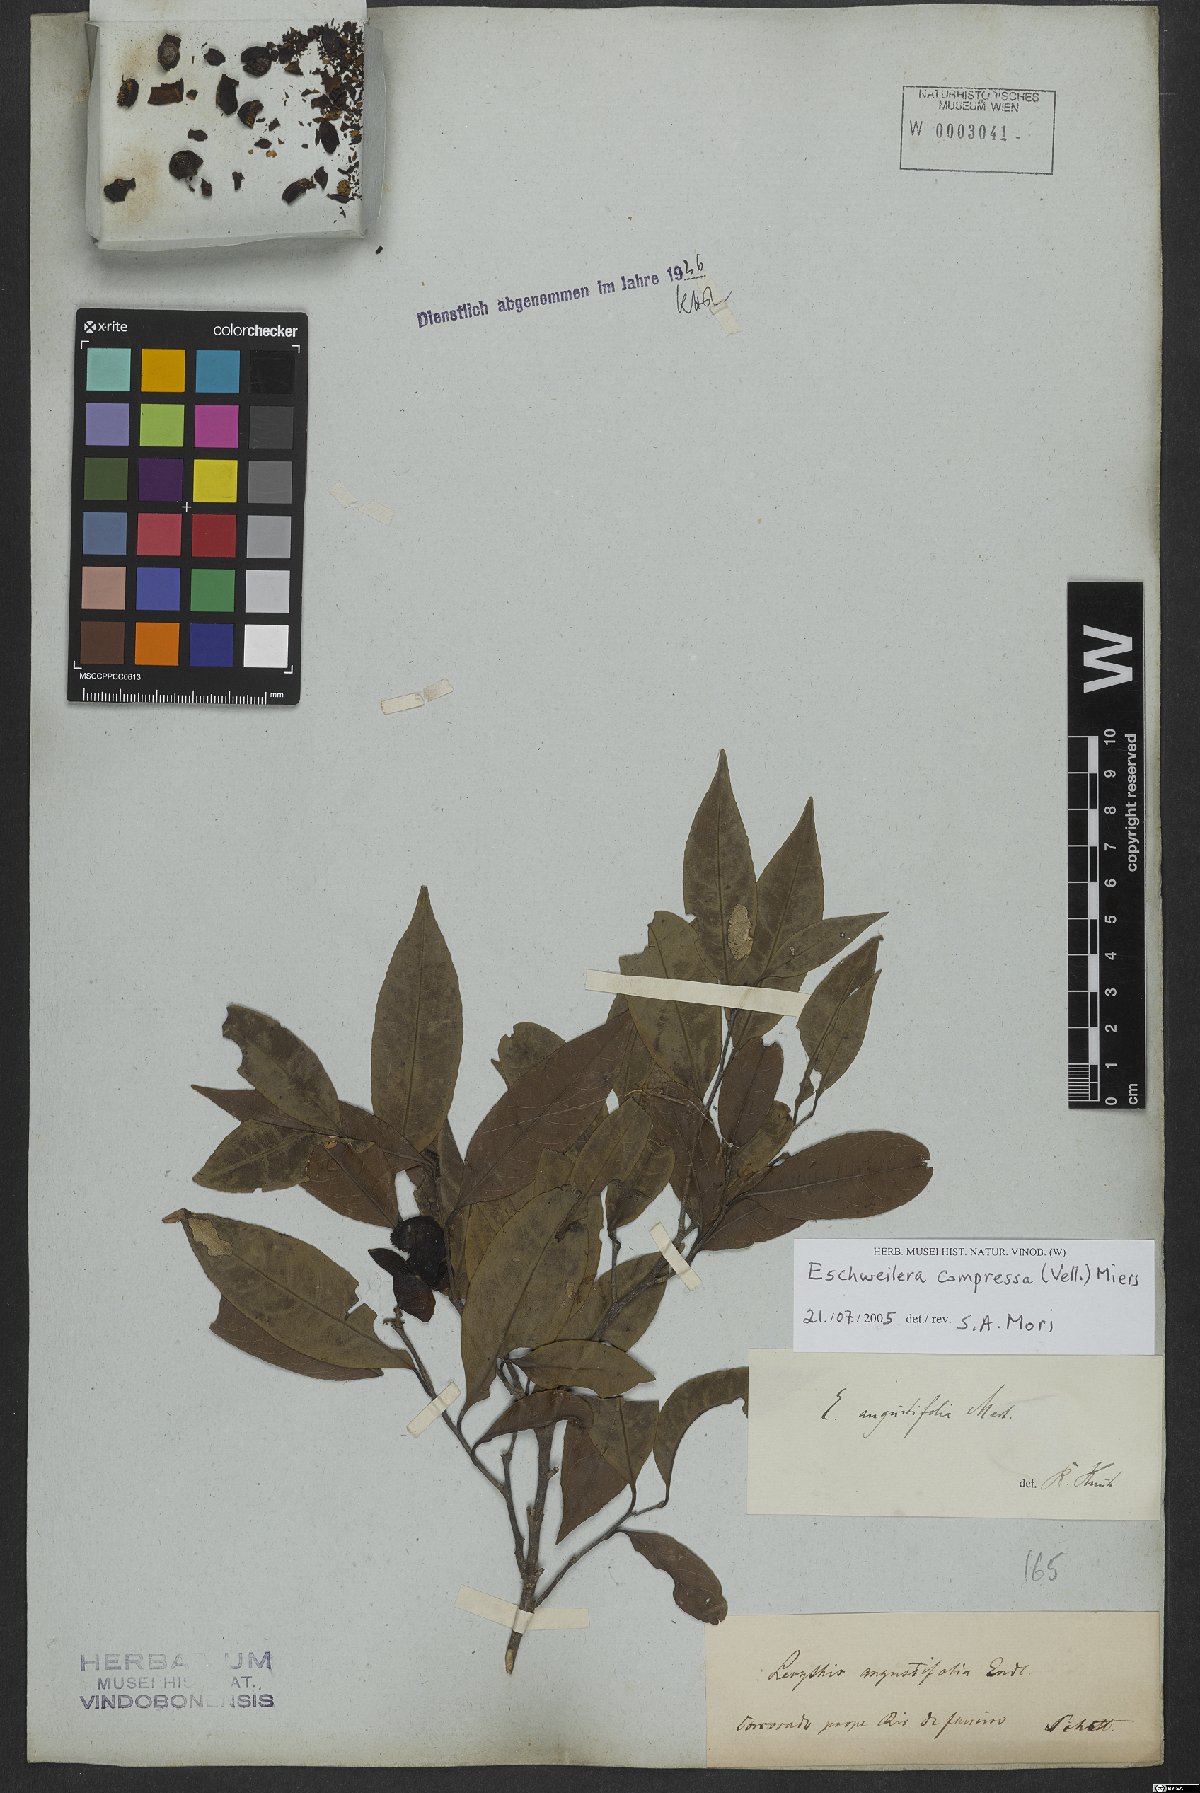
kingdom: Plantae
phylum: Tracheophyta
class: Magnoliopsida
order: Ericales
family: Lecythidaceae
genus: Eschweilera
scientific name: Eschweilera compressa
